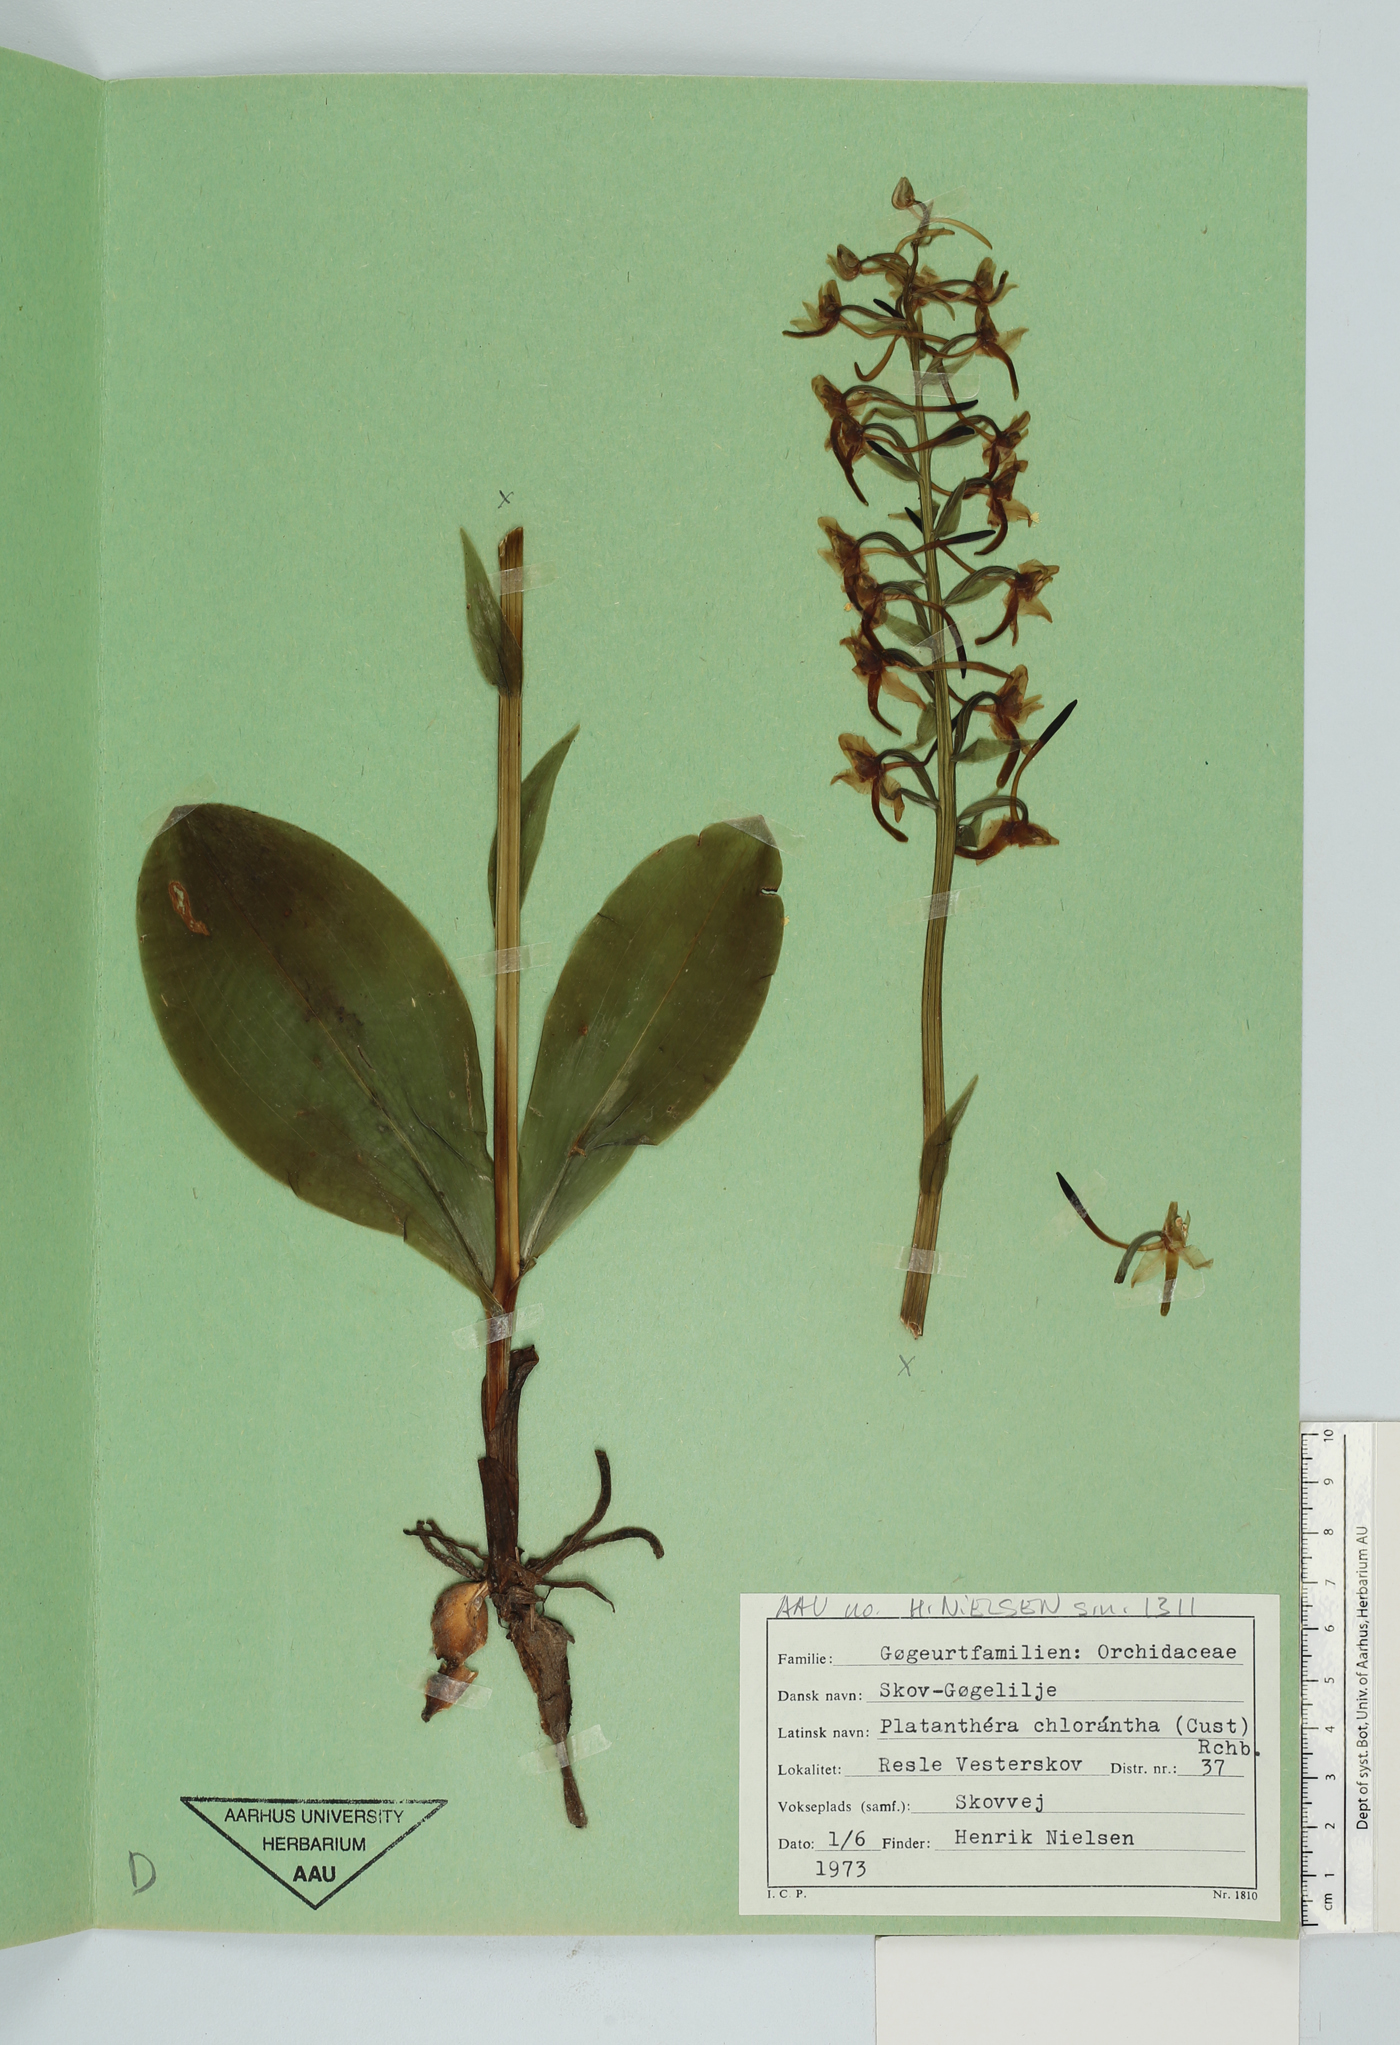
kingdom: Plantae
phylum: Tracheophyta
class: Liliopsida
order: Asparagales
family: Orchidaceae
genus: Platanthera
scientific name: Platanthera chlorantha
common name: Greater butterfly-orchid
